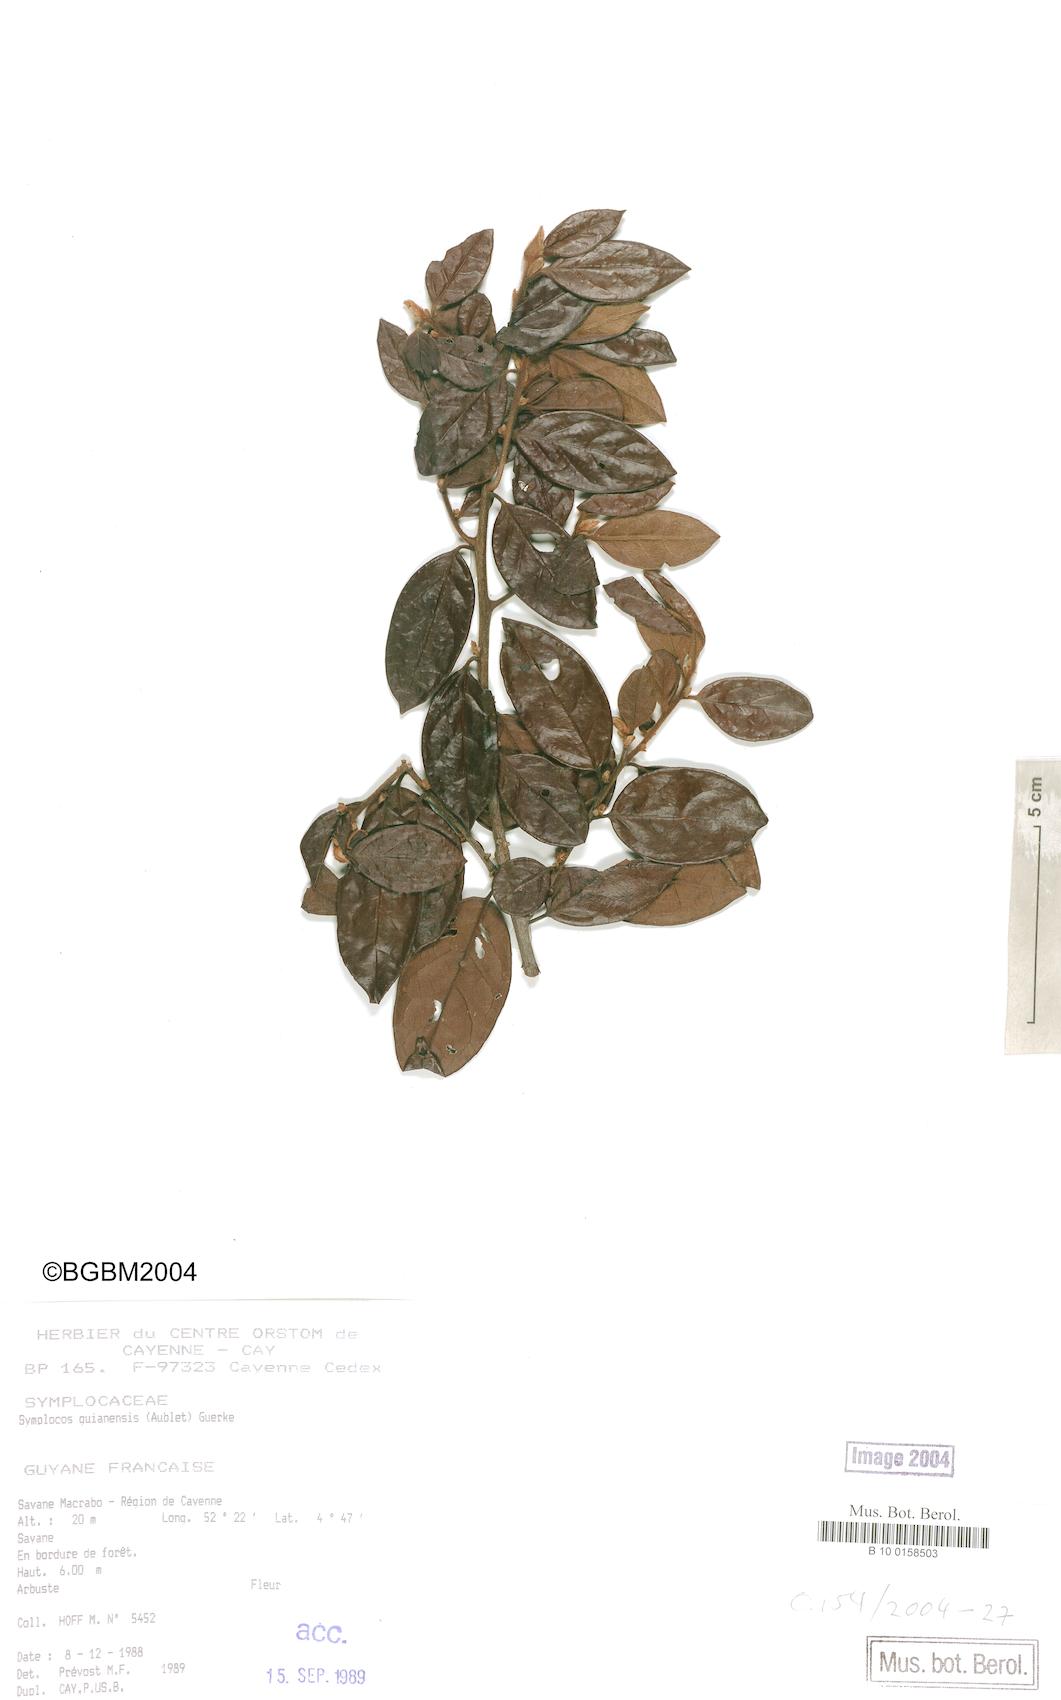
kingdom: Plantae
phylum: Tracheophyta
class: Magnoliopsida
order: Ericales
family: Symplocaceae
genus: Symplocos
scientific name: Symplocos guianensis
